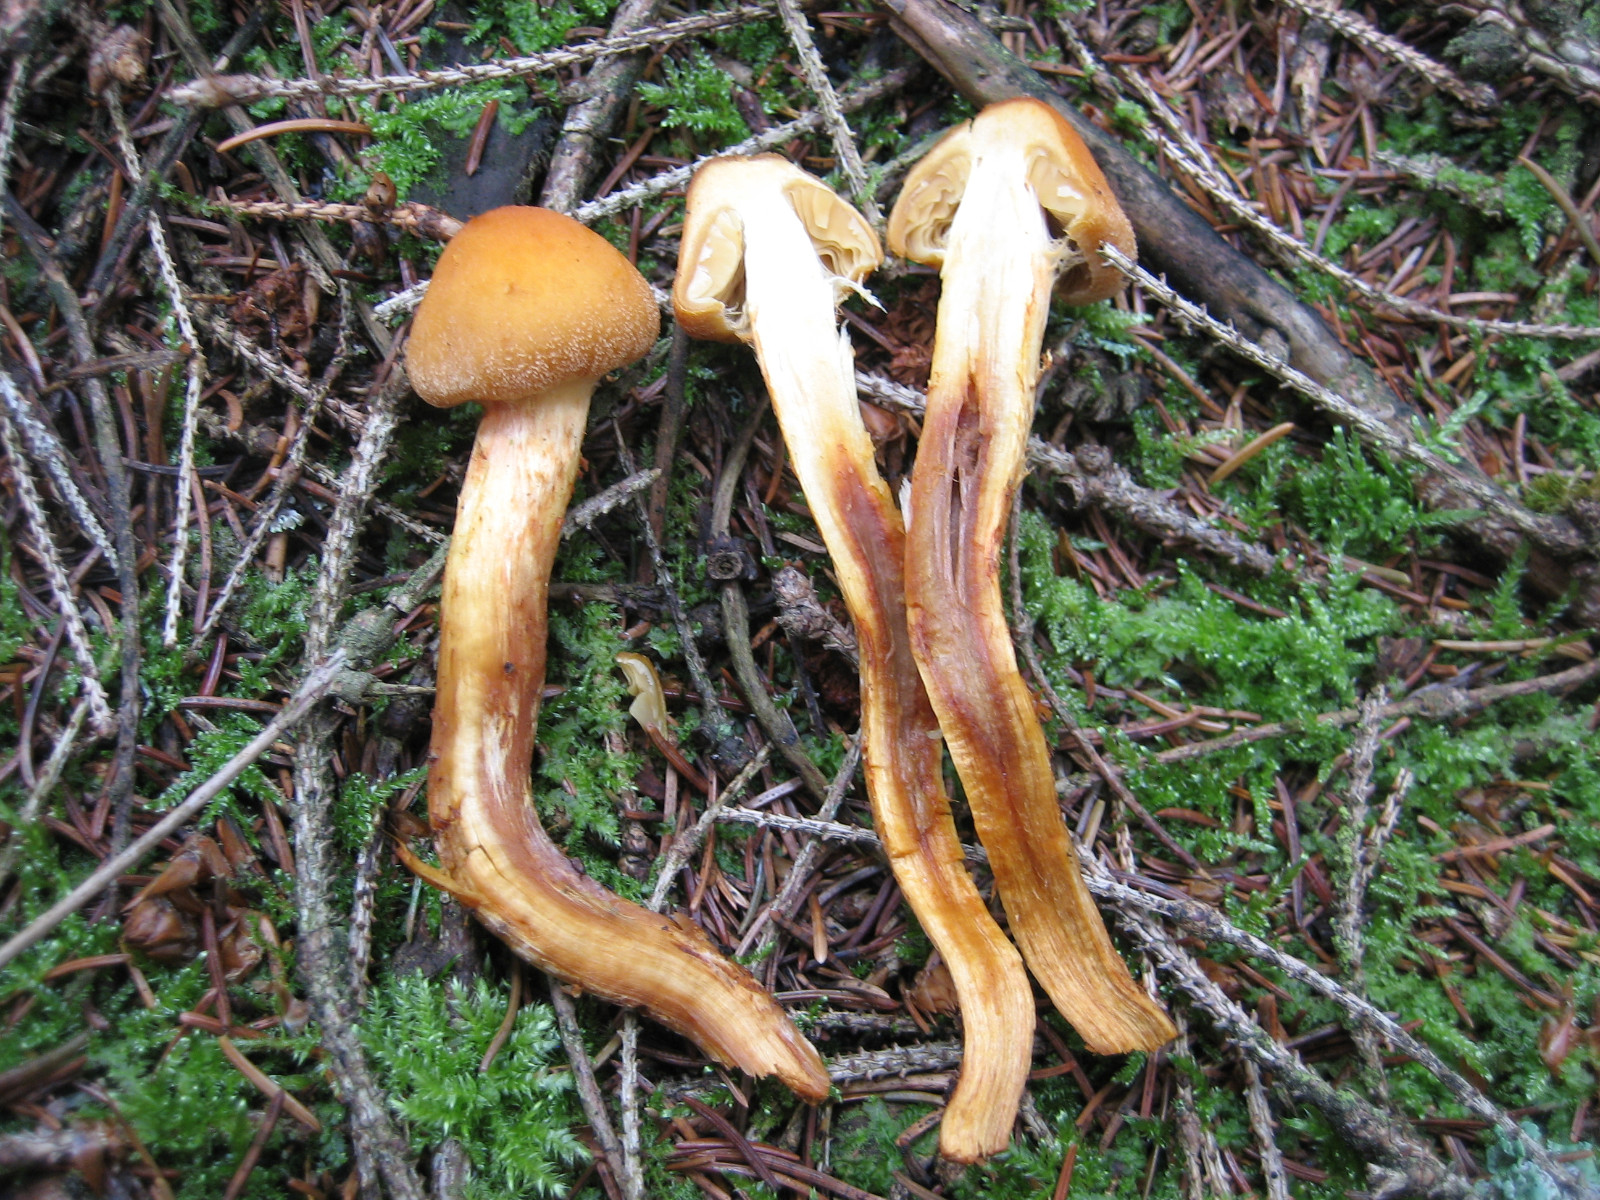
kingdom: Fungi
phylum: Basidiomycota
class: Agaricomycetes
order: Agaricales
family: Cortinariaceae
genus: Aureonarius
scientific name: Aureonarius limonius
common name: orangegul slørhat
